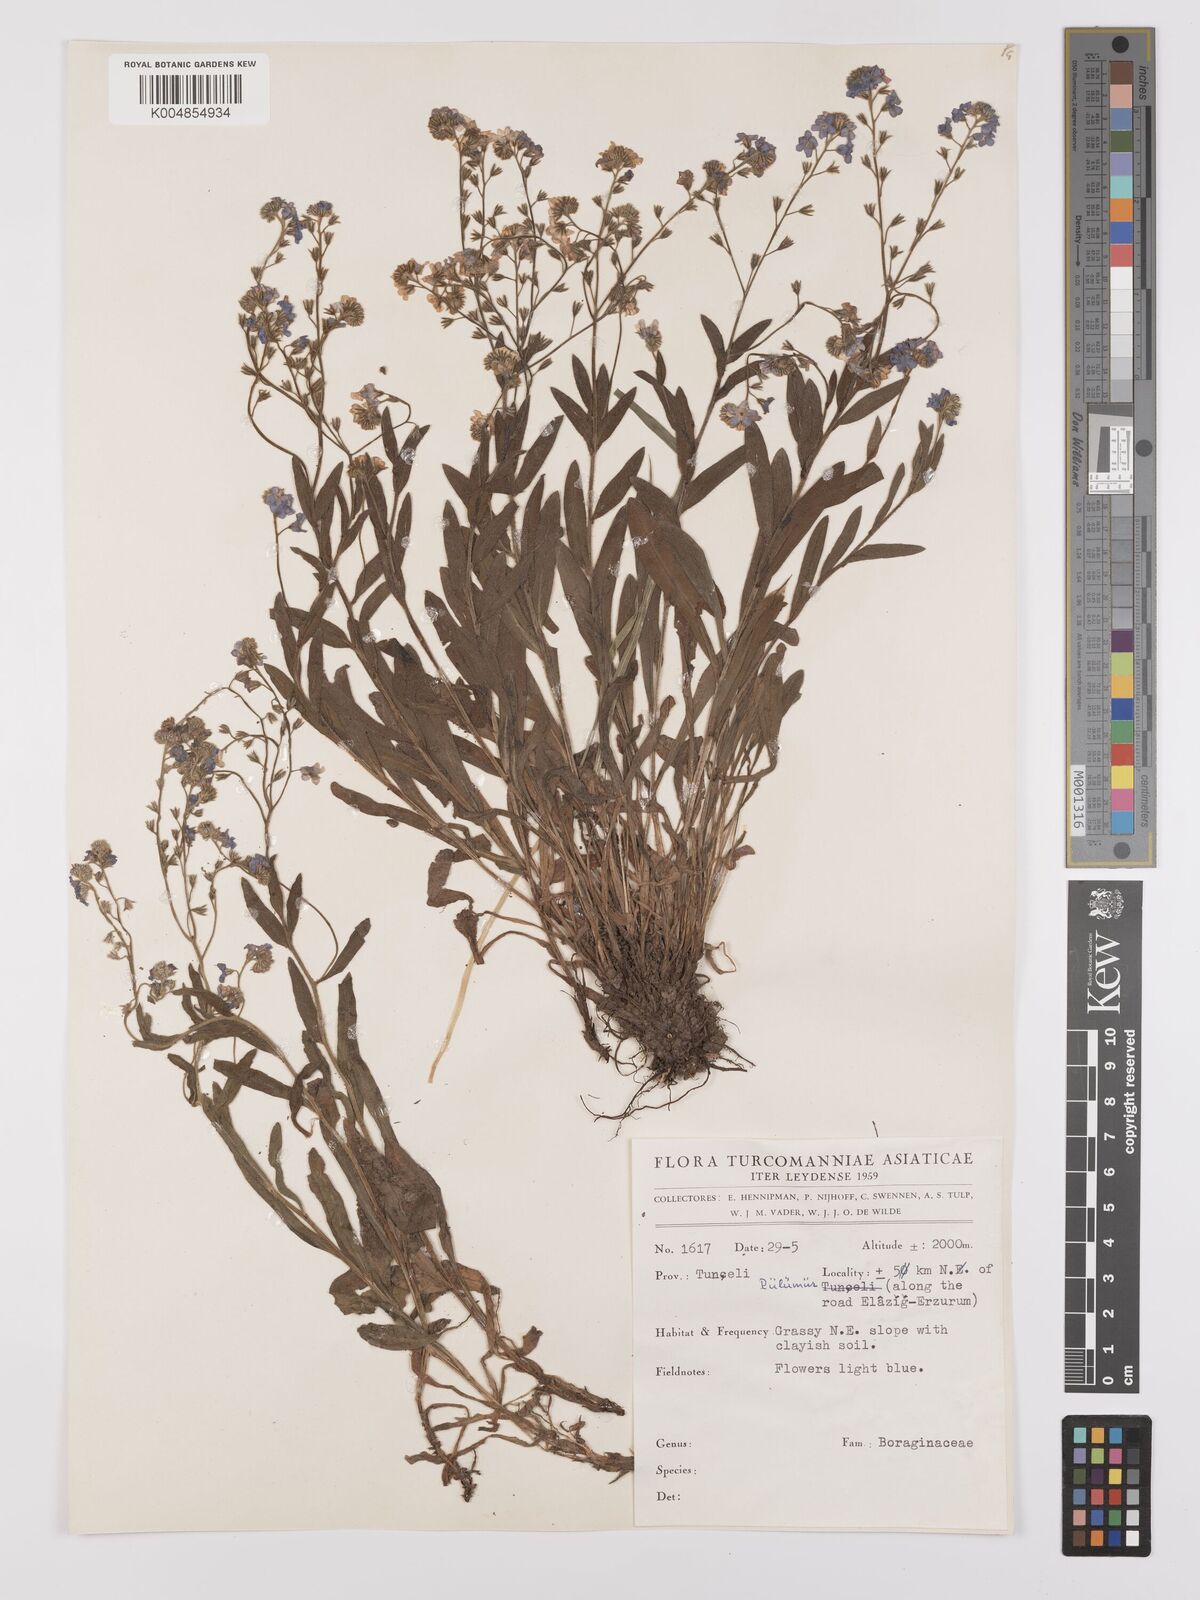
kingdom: Plantae
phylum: Tracheophyta
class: Magnoliopsida
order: Boraginales
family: Boraginaceae
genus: Myosotis
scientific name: Myosotis
